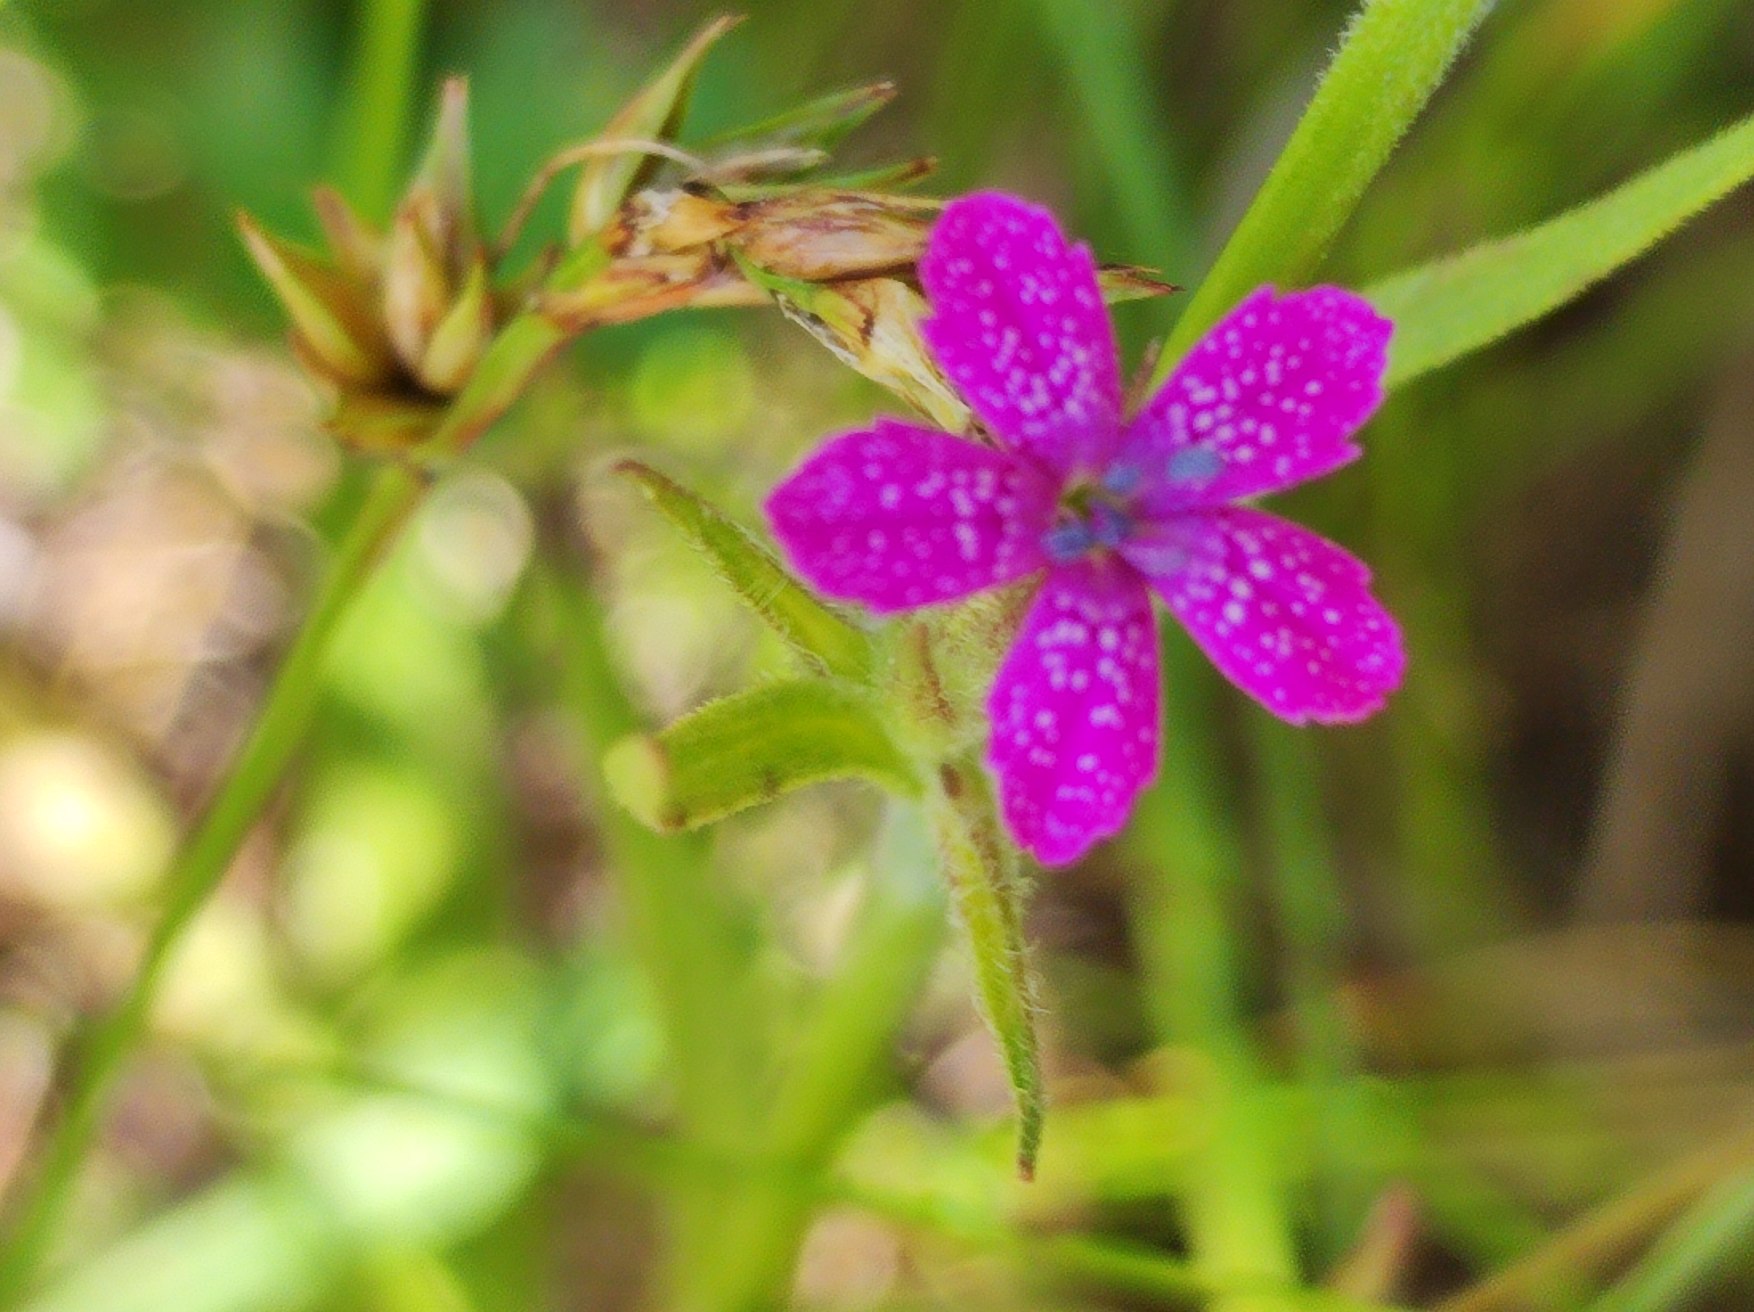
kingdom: Plantae
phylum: Tracheophyta
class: Magnoliopsida
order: Caryophyllales
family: Caryophyllaceae
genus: Dianthus
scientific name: Dianthus armeria
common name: Kost-nellike
